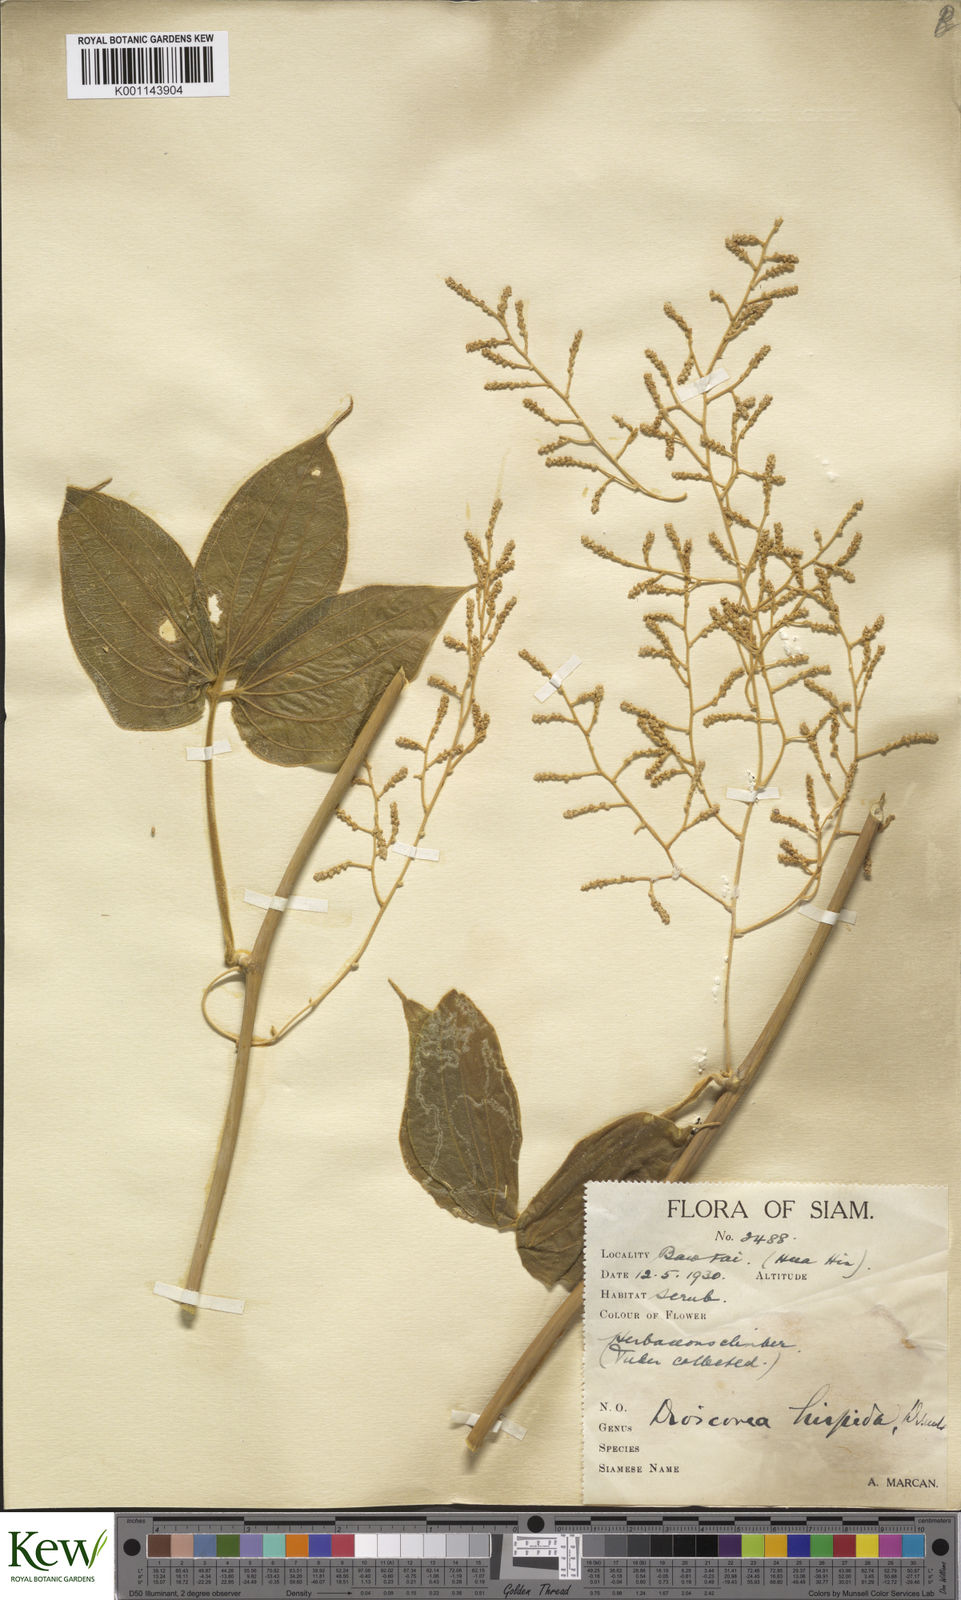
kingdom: Plantae
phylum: Tracheophyta
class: Liliopsida
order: Dioscoreales
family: Dioscoreaceae
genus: Dioscorea
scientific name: Dioscorea hispida
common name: Asiatic bitter yam
